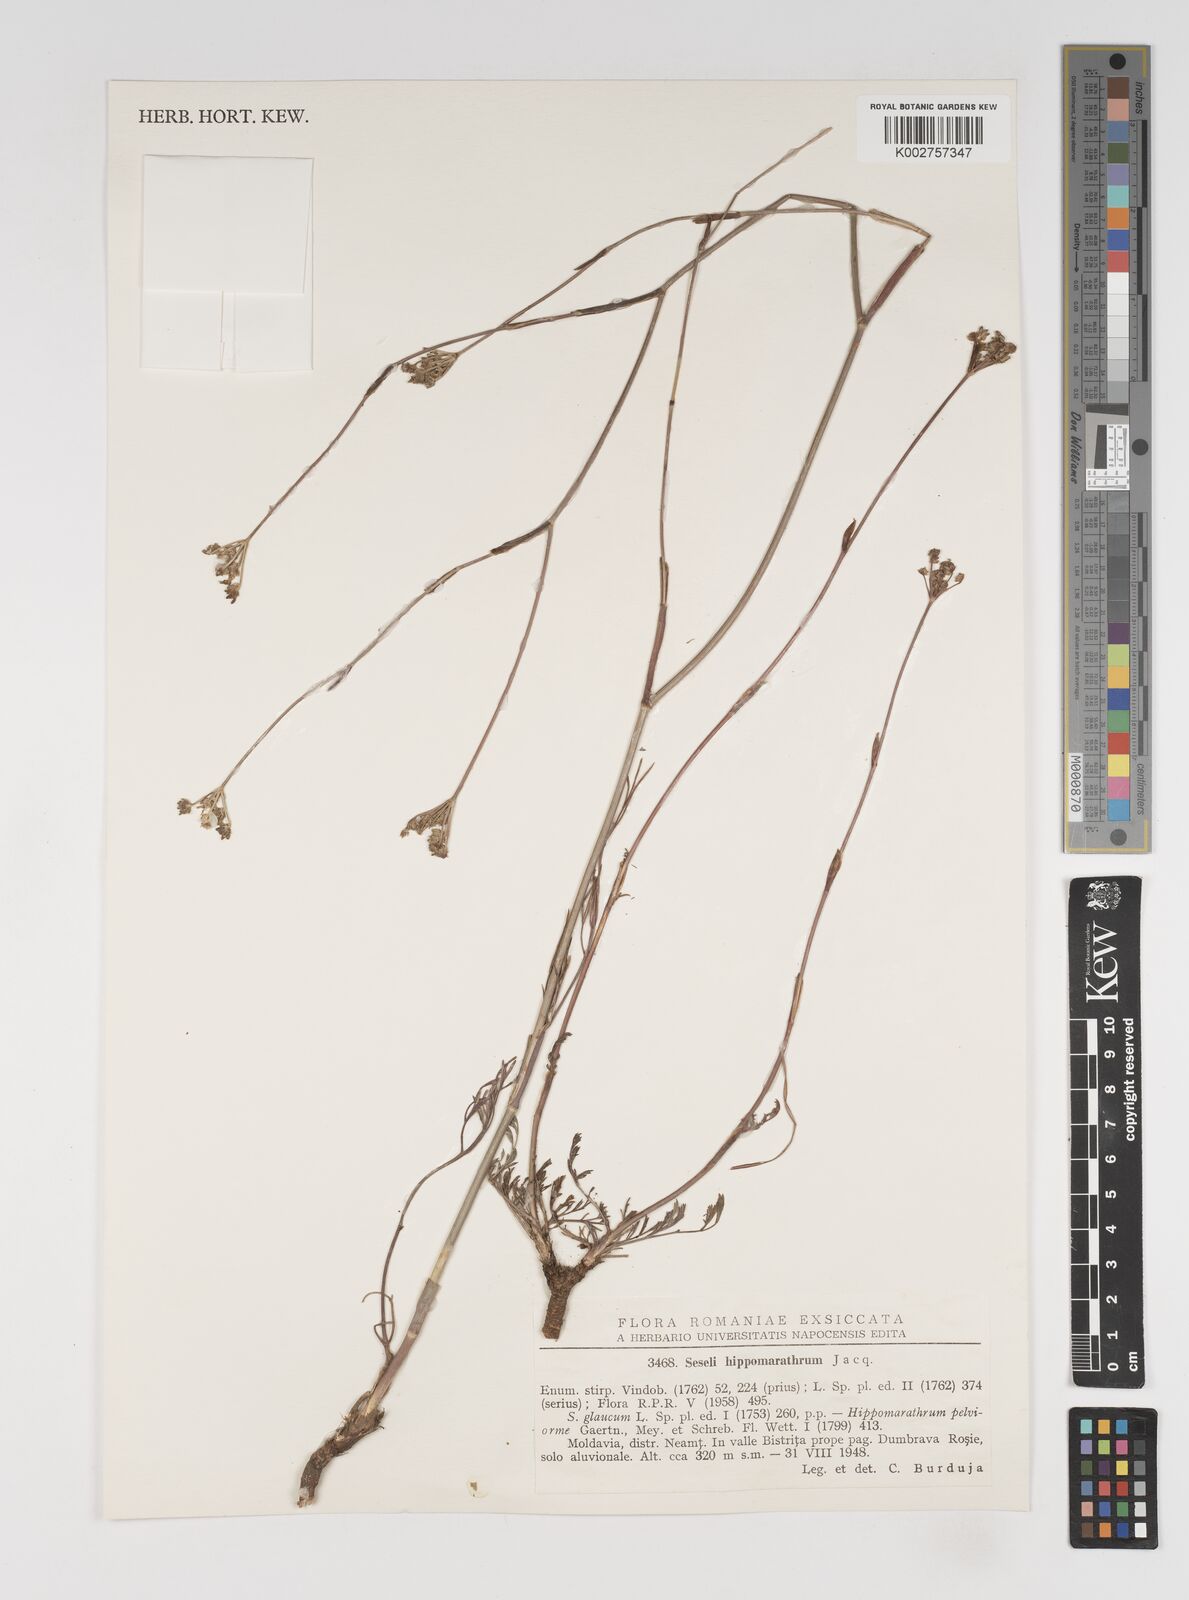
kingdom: Plantae
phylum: Tracheophyta
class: Magnoliopsida
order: Apiales
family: Apiaceae
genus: Seseli
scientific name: Seseli
